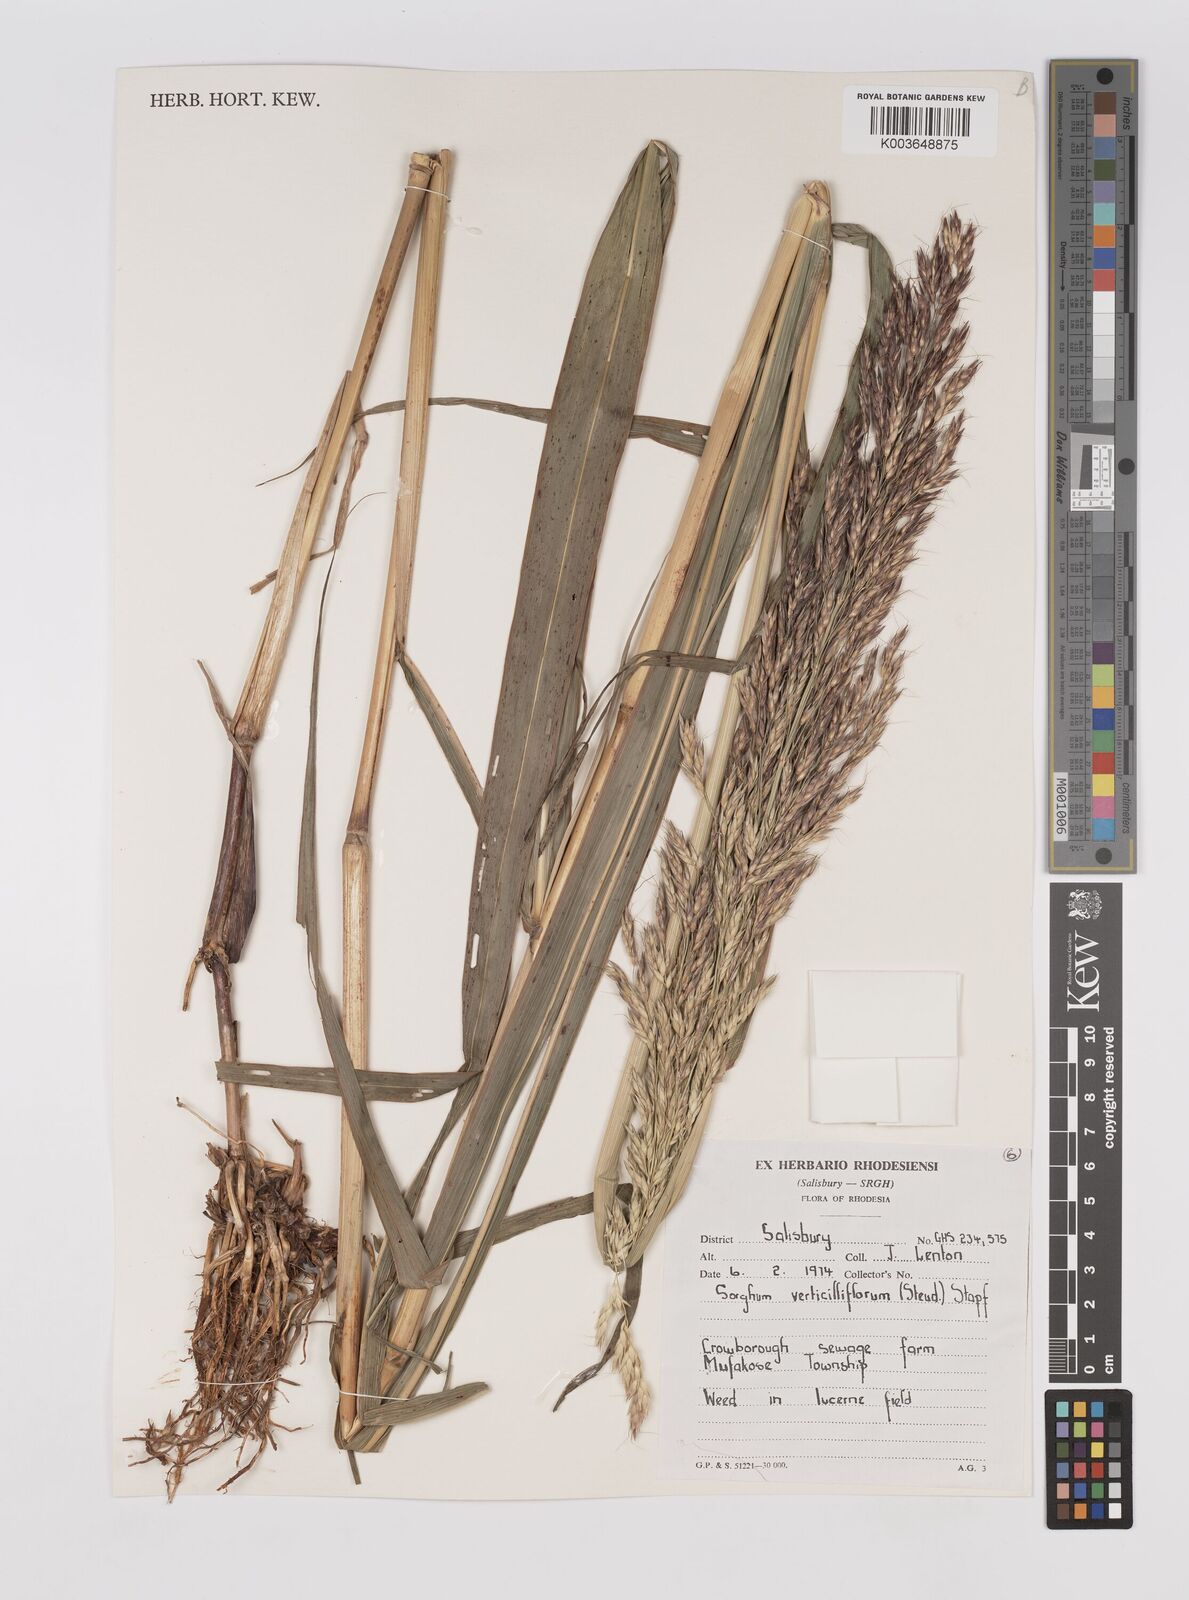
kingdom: Plantae
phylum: Tracheophyta
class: Liliopsida
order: Poales
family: Poaceae
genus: Sorghum
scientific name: Sorghum arundinaceum
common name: Sorghum
